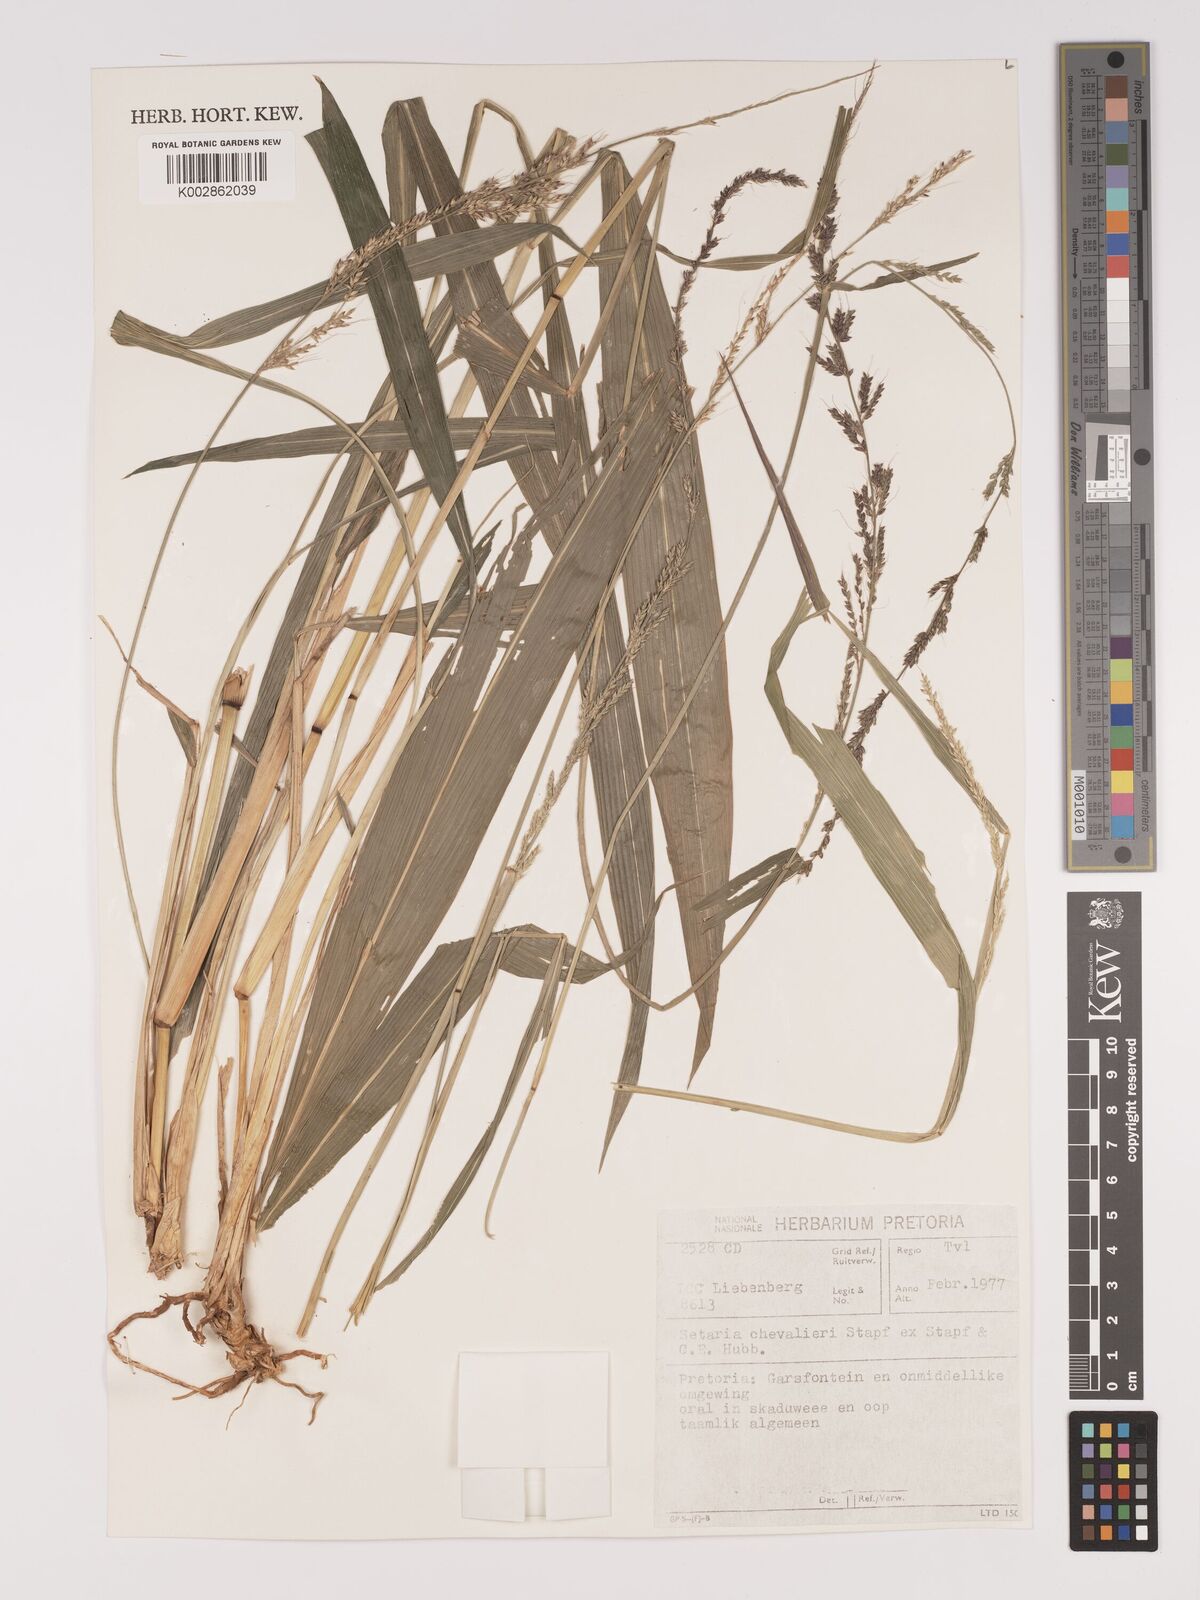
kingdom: Plantae
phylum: Tracheophyta
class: Liliopsida
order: Poales
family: Poaceae
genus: Setaria
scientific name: Setaria megaphylla
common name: Bigleaf bristlegrass
